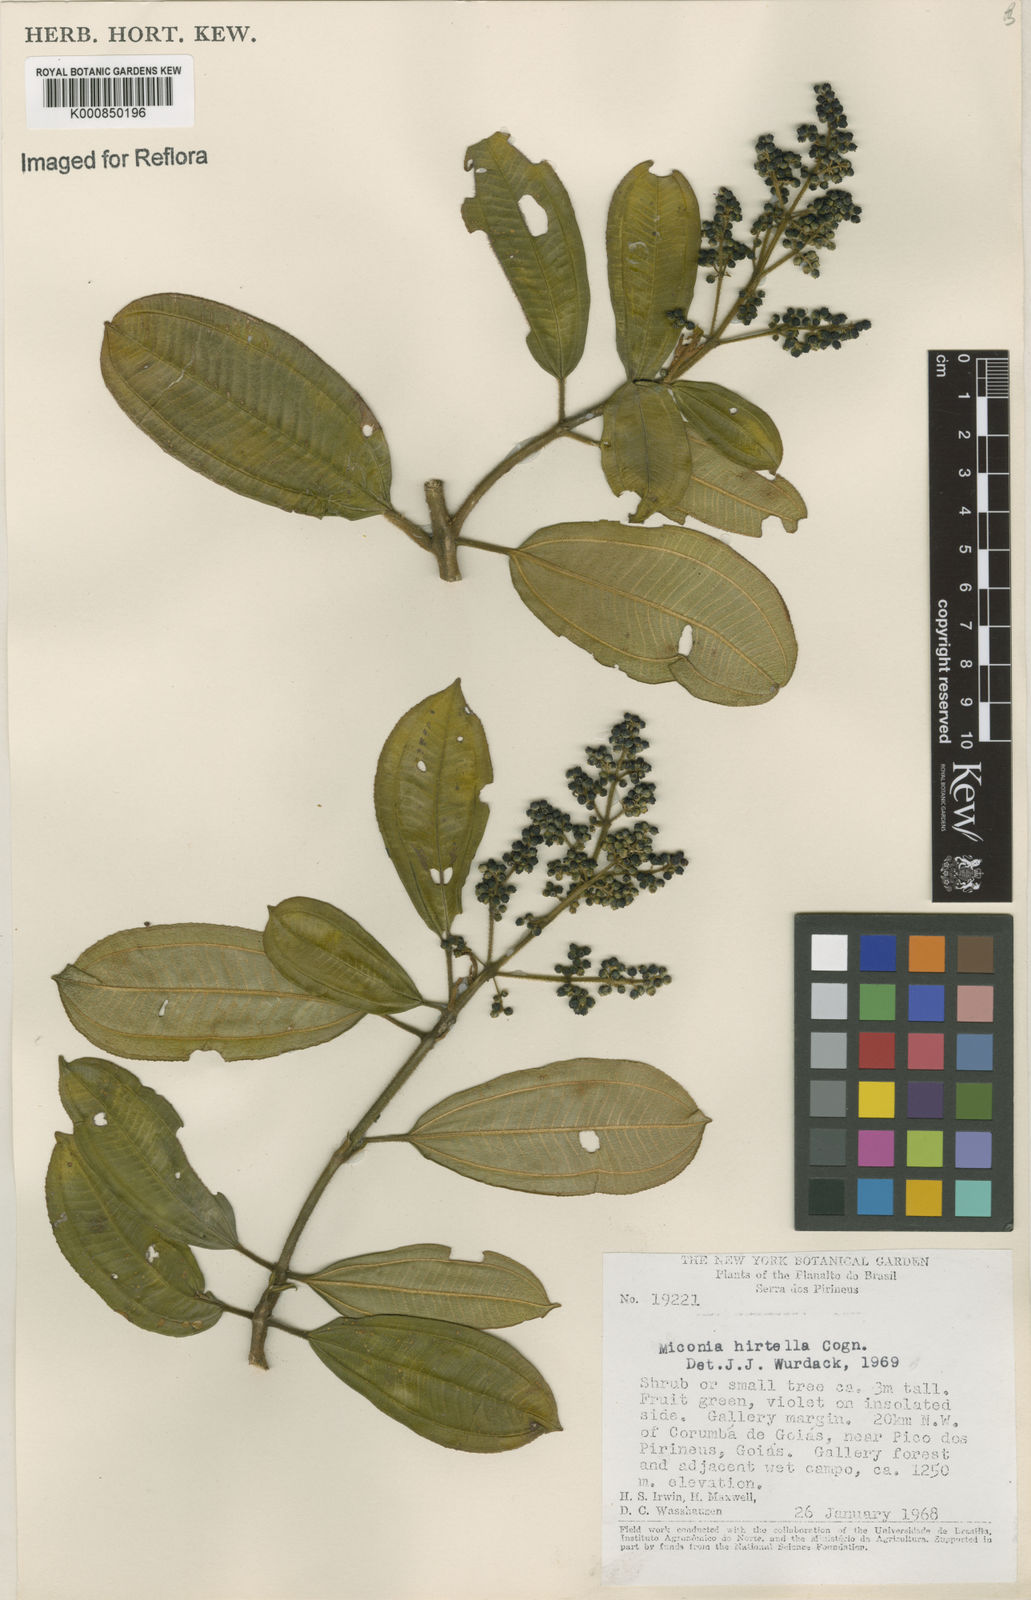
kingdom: Plantae
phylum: Tracheophyta
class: Magnoliopsida
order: Myrtales
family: Melastomataceae
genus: Miconia
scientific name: Miconia hirta
